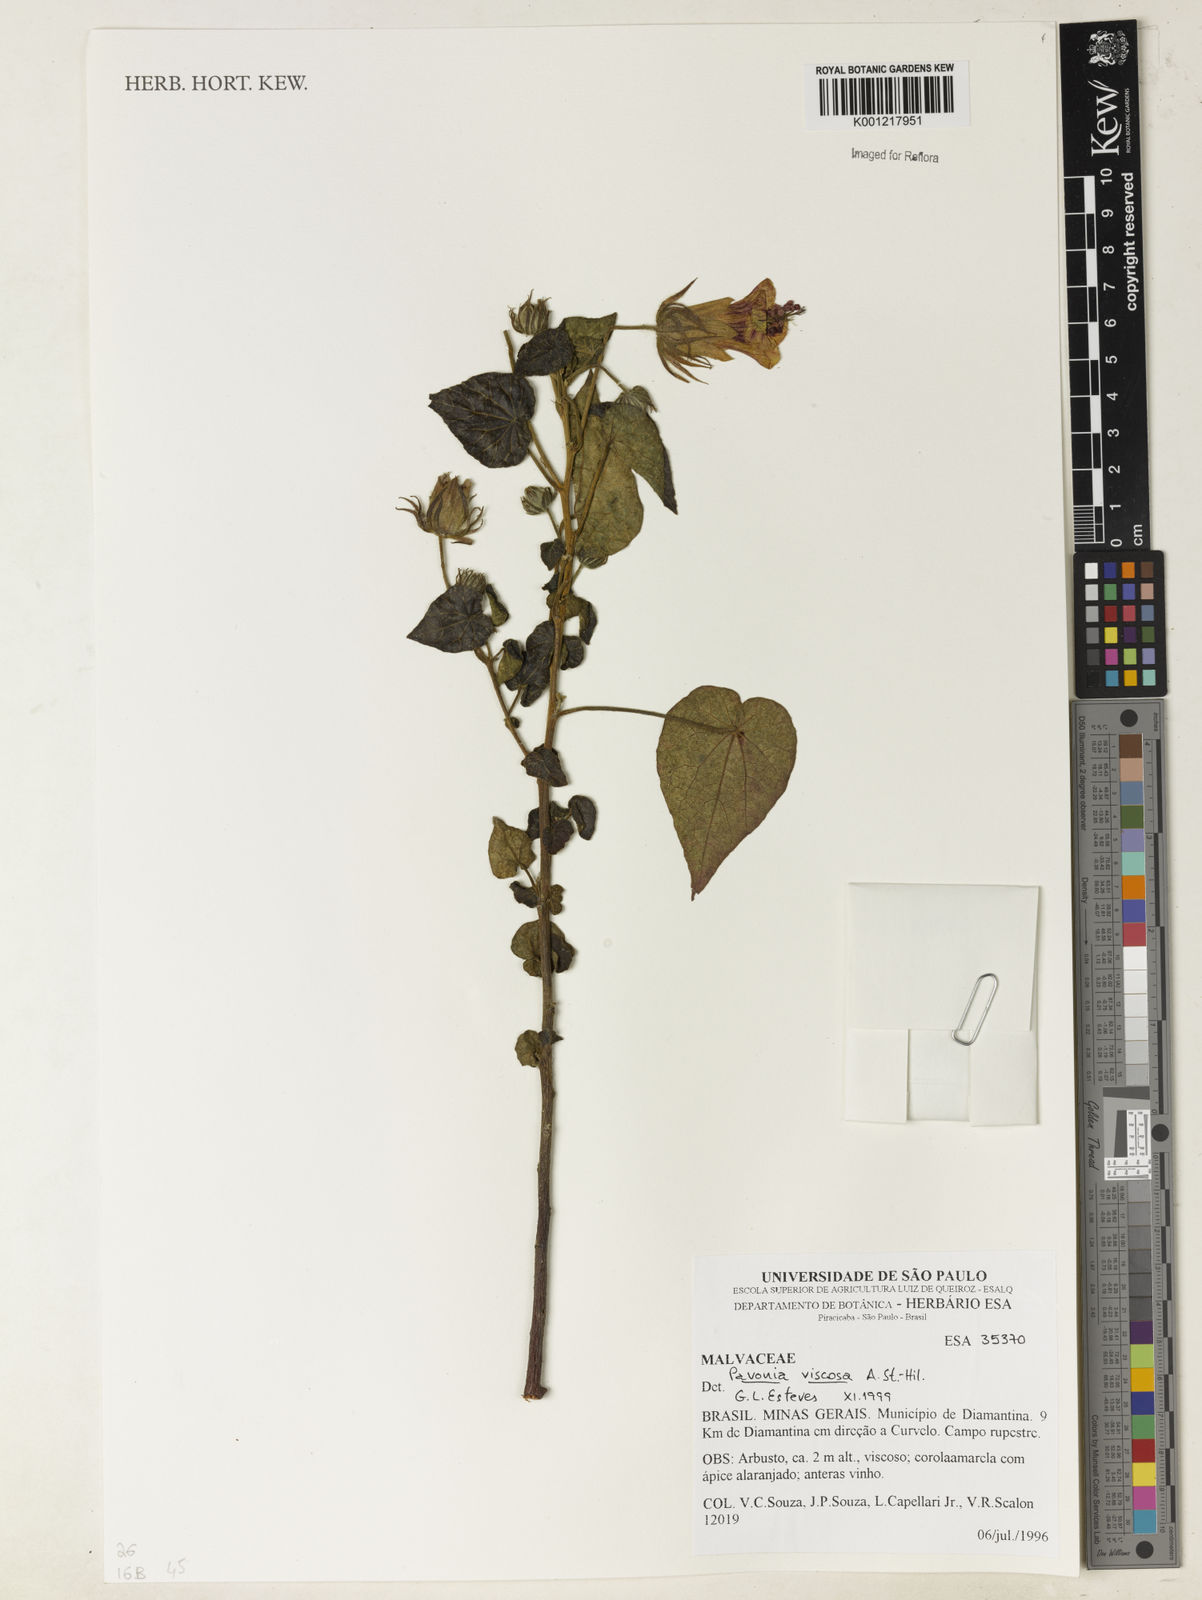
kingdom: Plantae
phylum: Tracheophyta
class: Magnoliopsida
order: Malvales
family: Malvaceae
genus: Pavonia
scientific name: Pavonia viscosa
